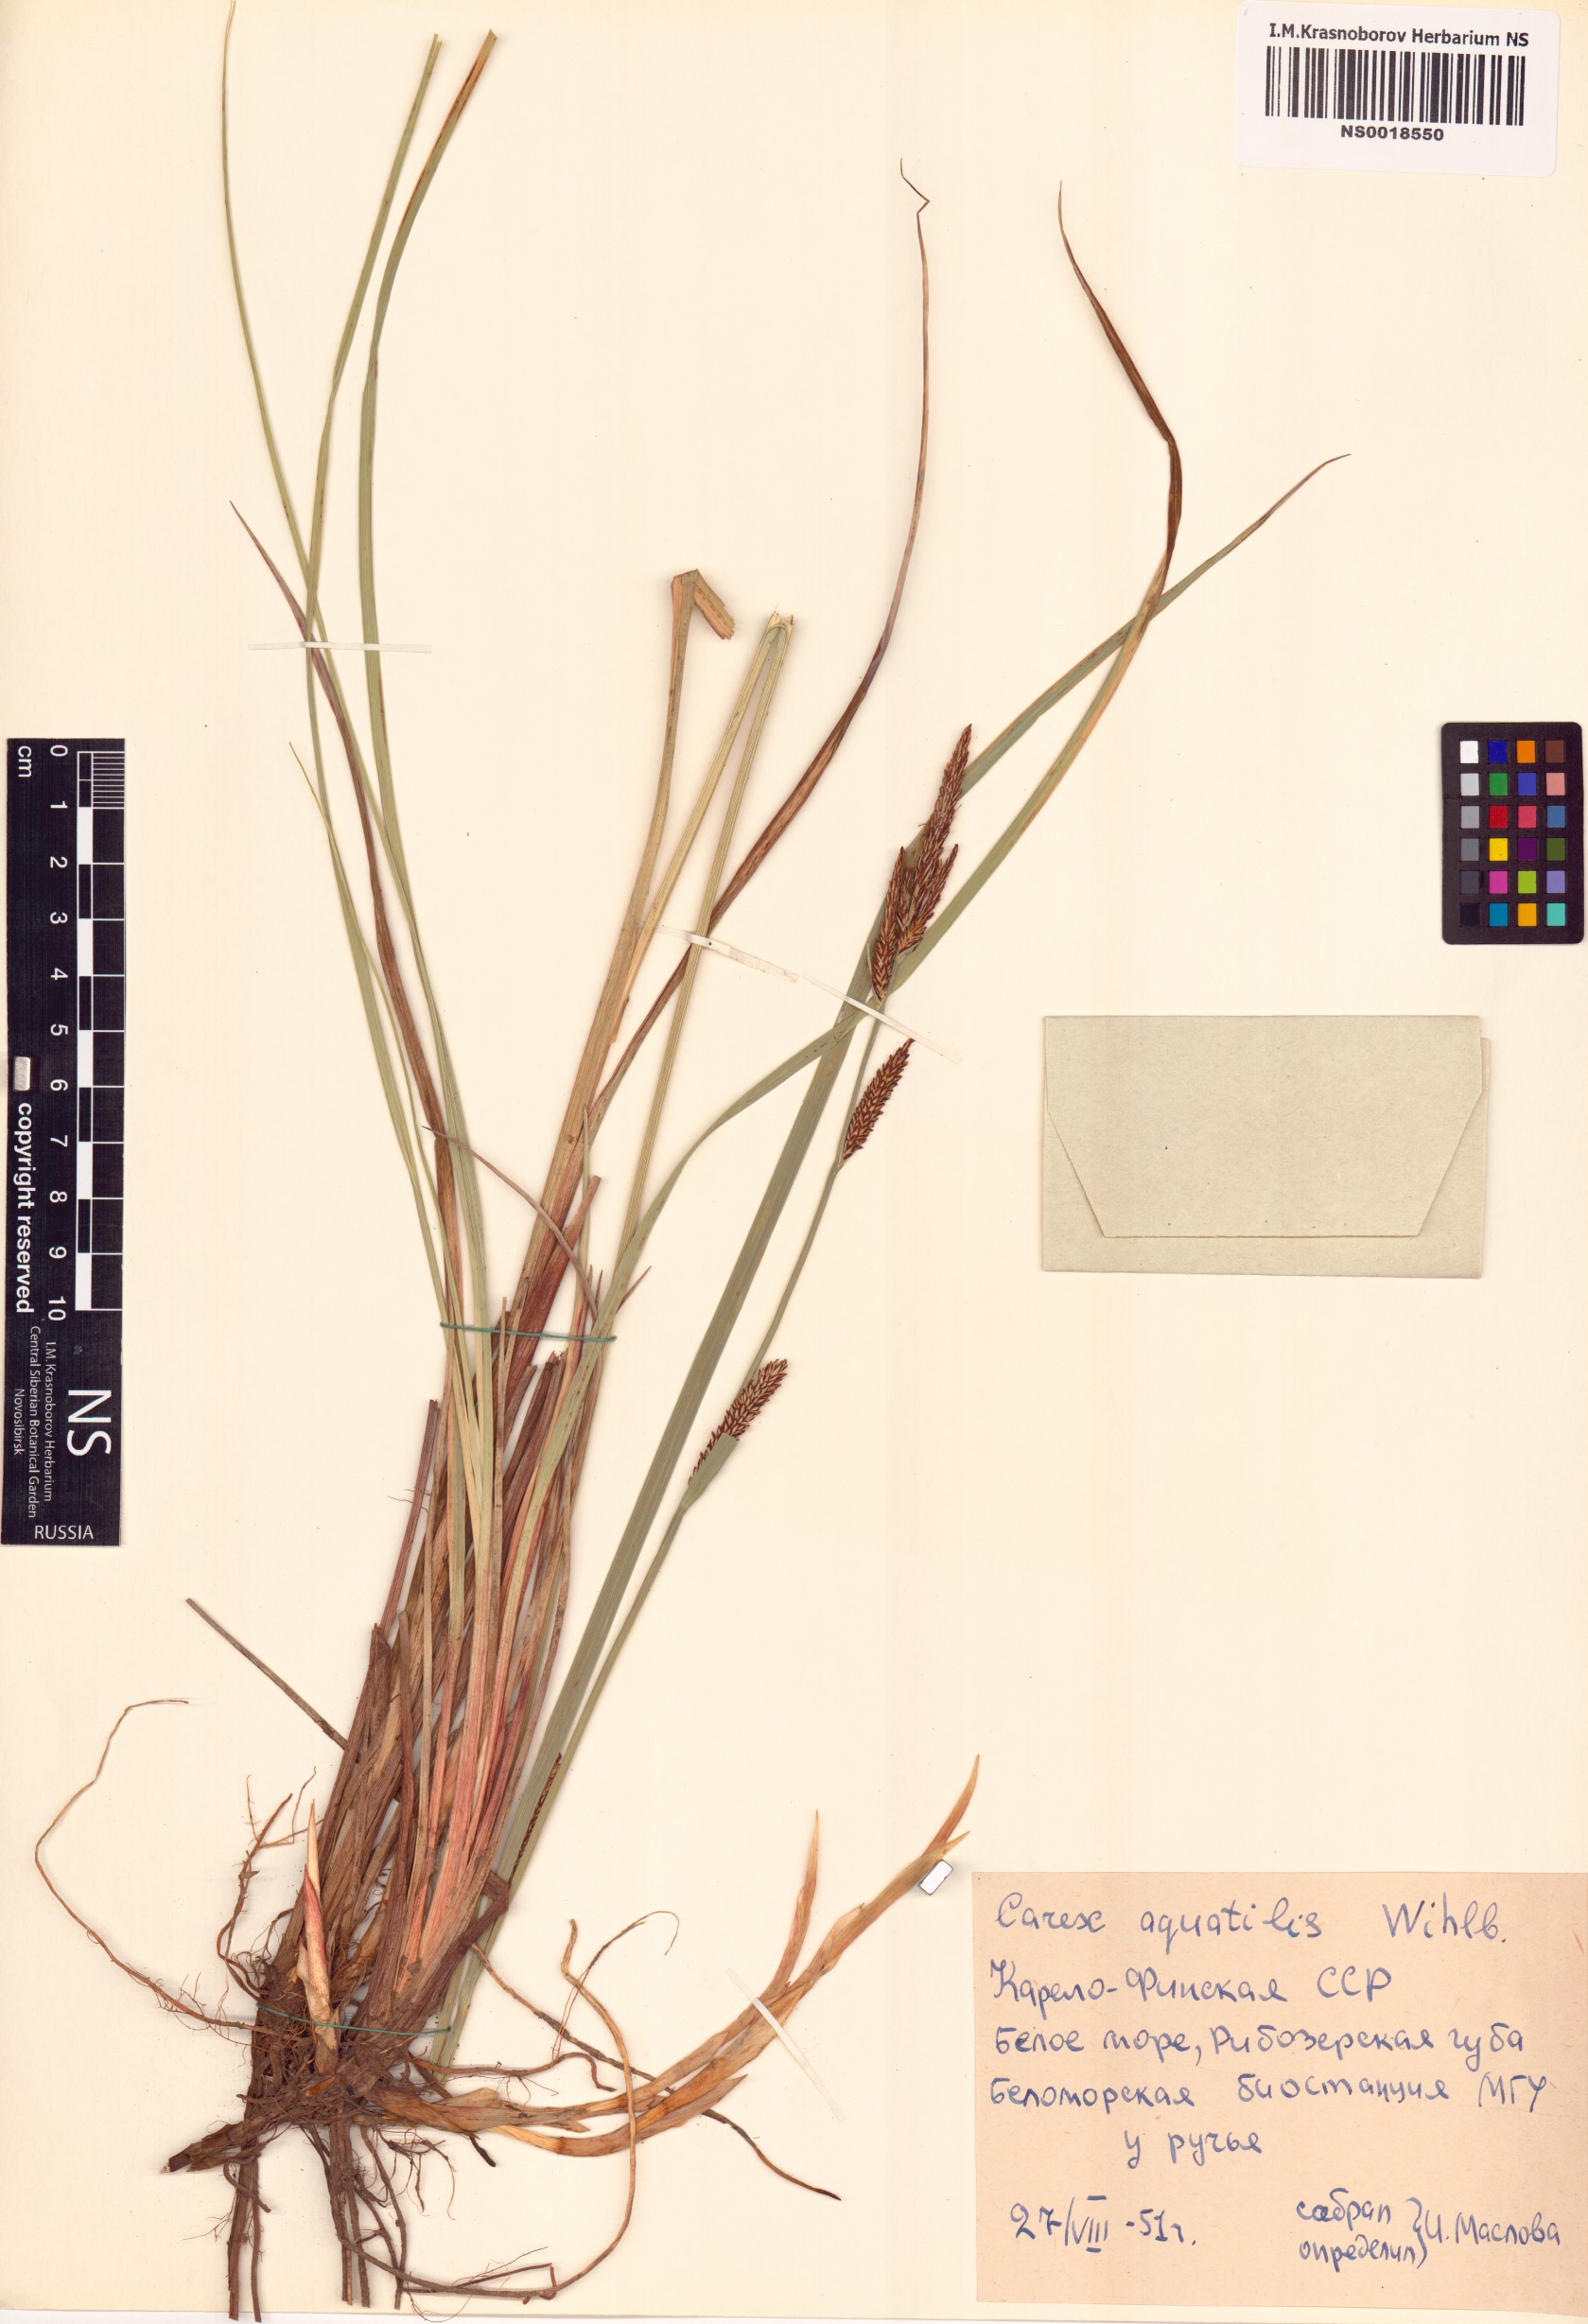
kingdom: Plantae
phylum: Tracheophyta
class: Liliopsida
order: Poales
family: Cyperaceae
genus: Carex
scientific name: Carex aquatilis
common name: Water sedge
